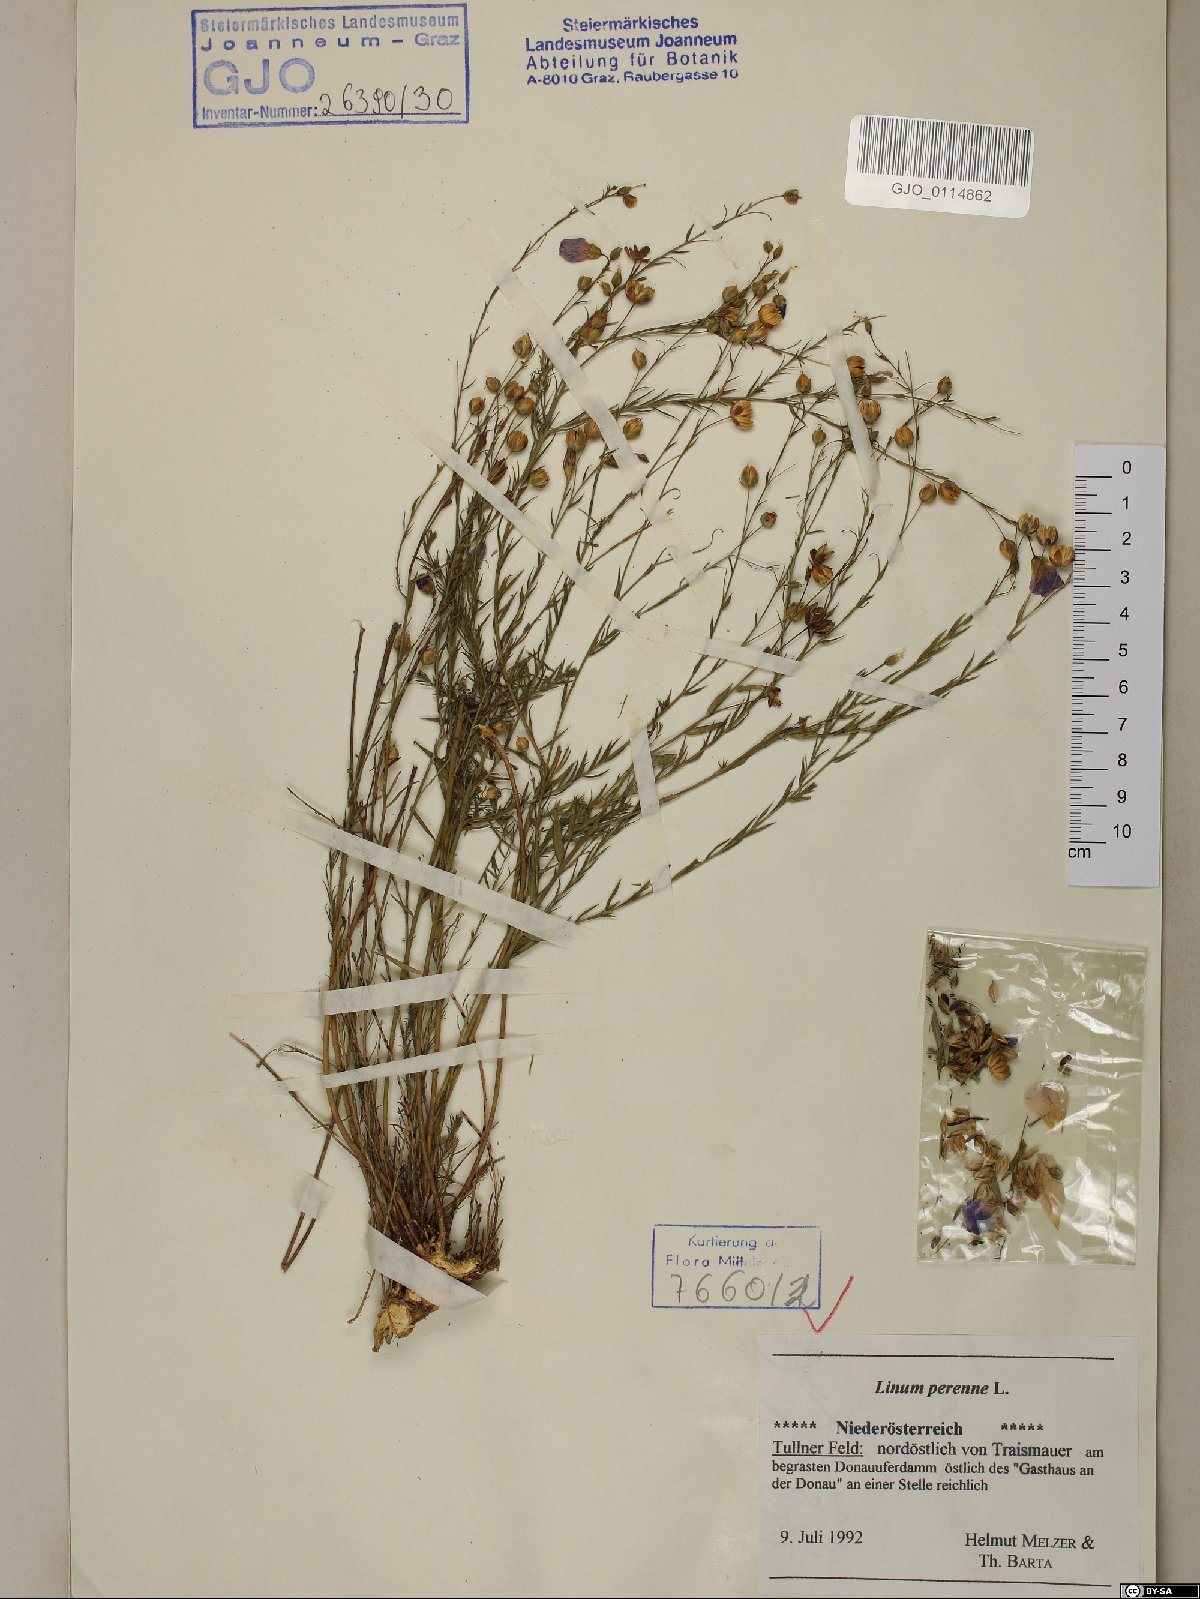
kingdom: Plantae
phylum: Tracheophyta
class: Magnoliopsida
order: Malpighiales
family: Linaceae
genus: Linum
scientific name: Linum perenne
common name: Blue flax
